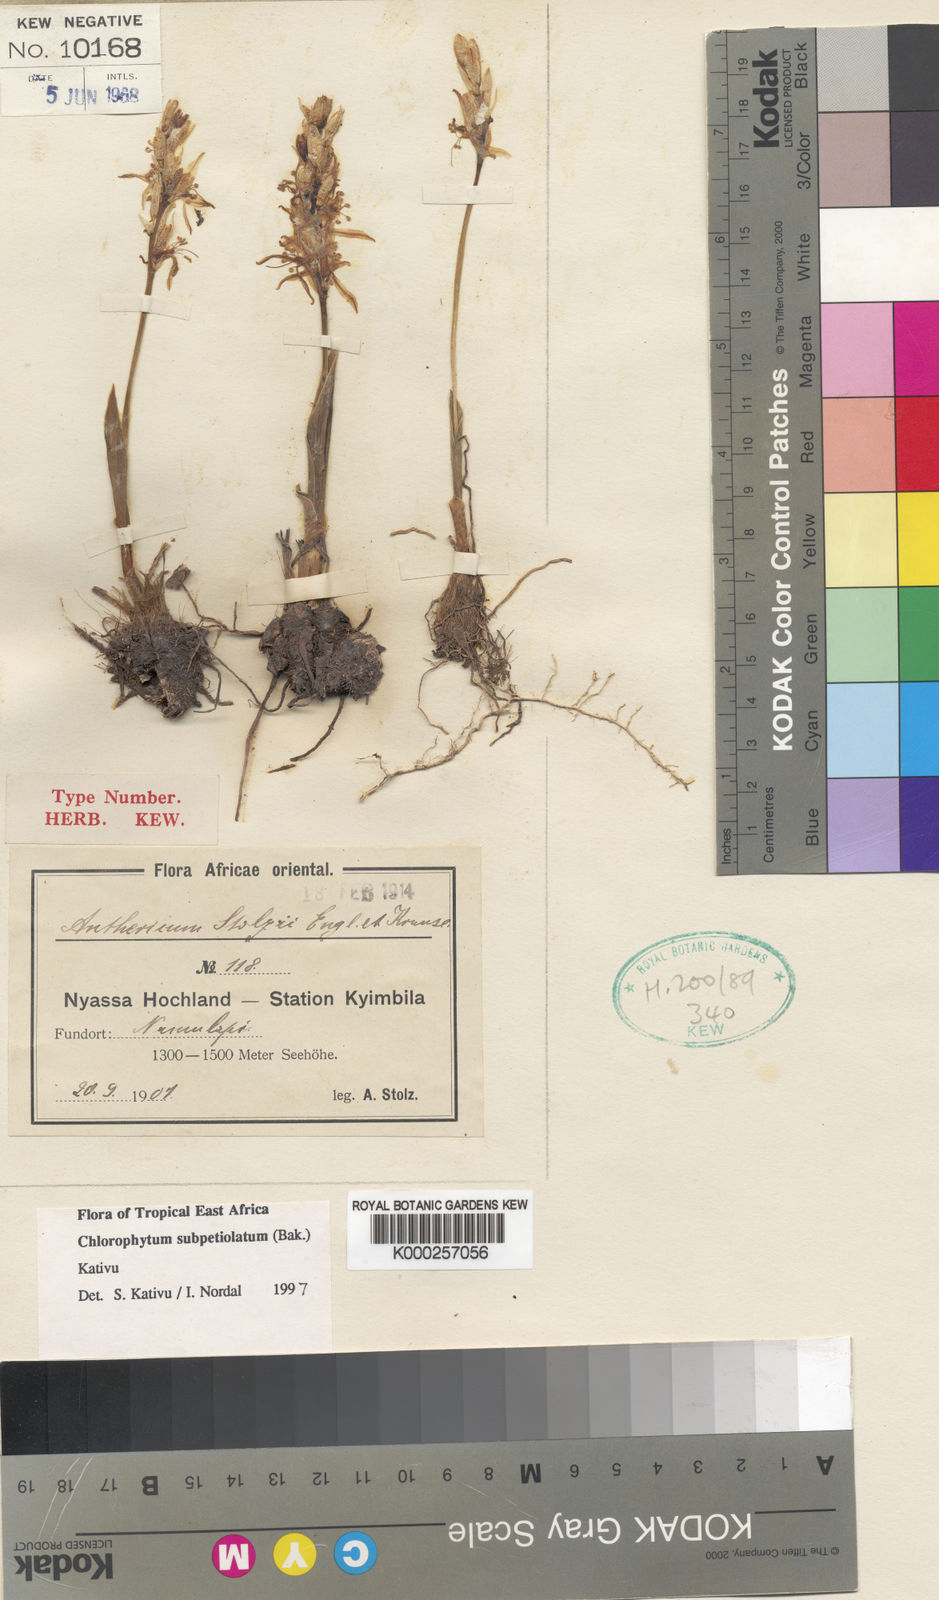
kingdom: Plantae
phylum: Tracheophyta
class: Liliopsida
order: Asparagales
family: Asparagaceae
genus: Chlorophytum
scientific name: Chlorophytum subpetiolatum
